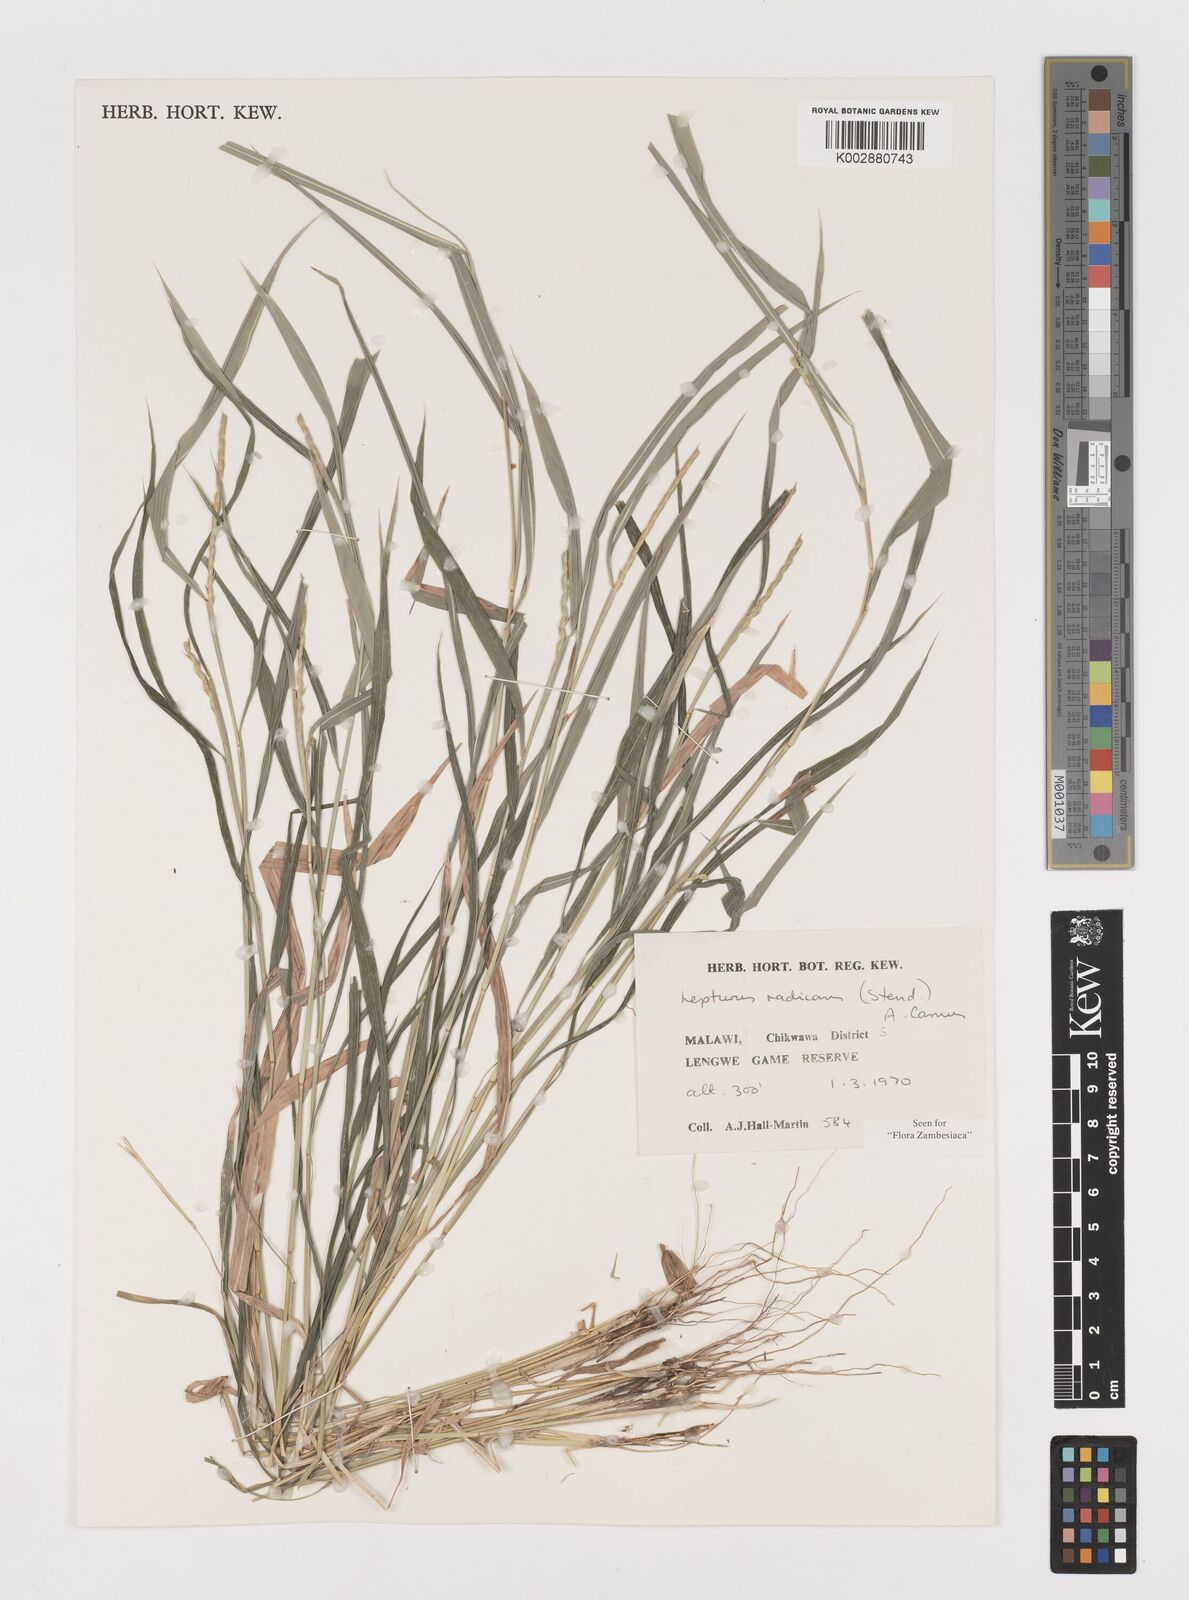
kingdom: Plantae
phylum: Tracheophyta
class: Liliopsida
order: Poales
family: Poaceae
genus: Lepturus
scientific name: Lepturus radicans
